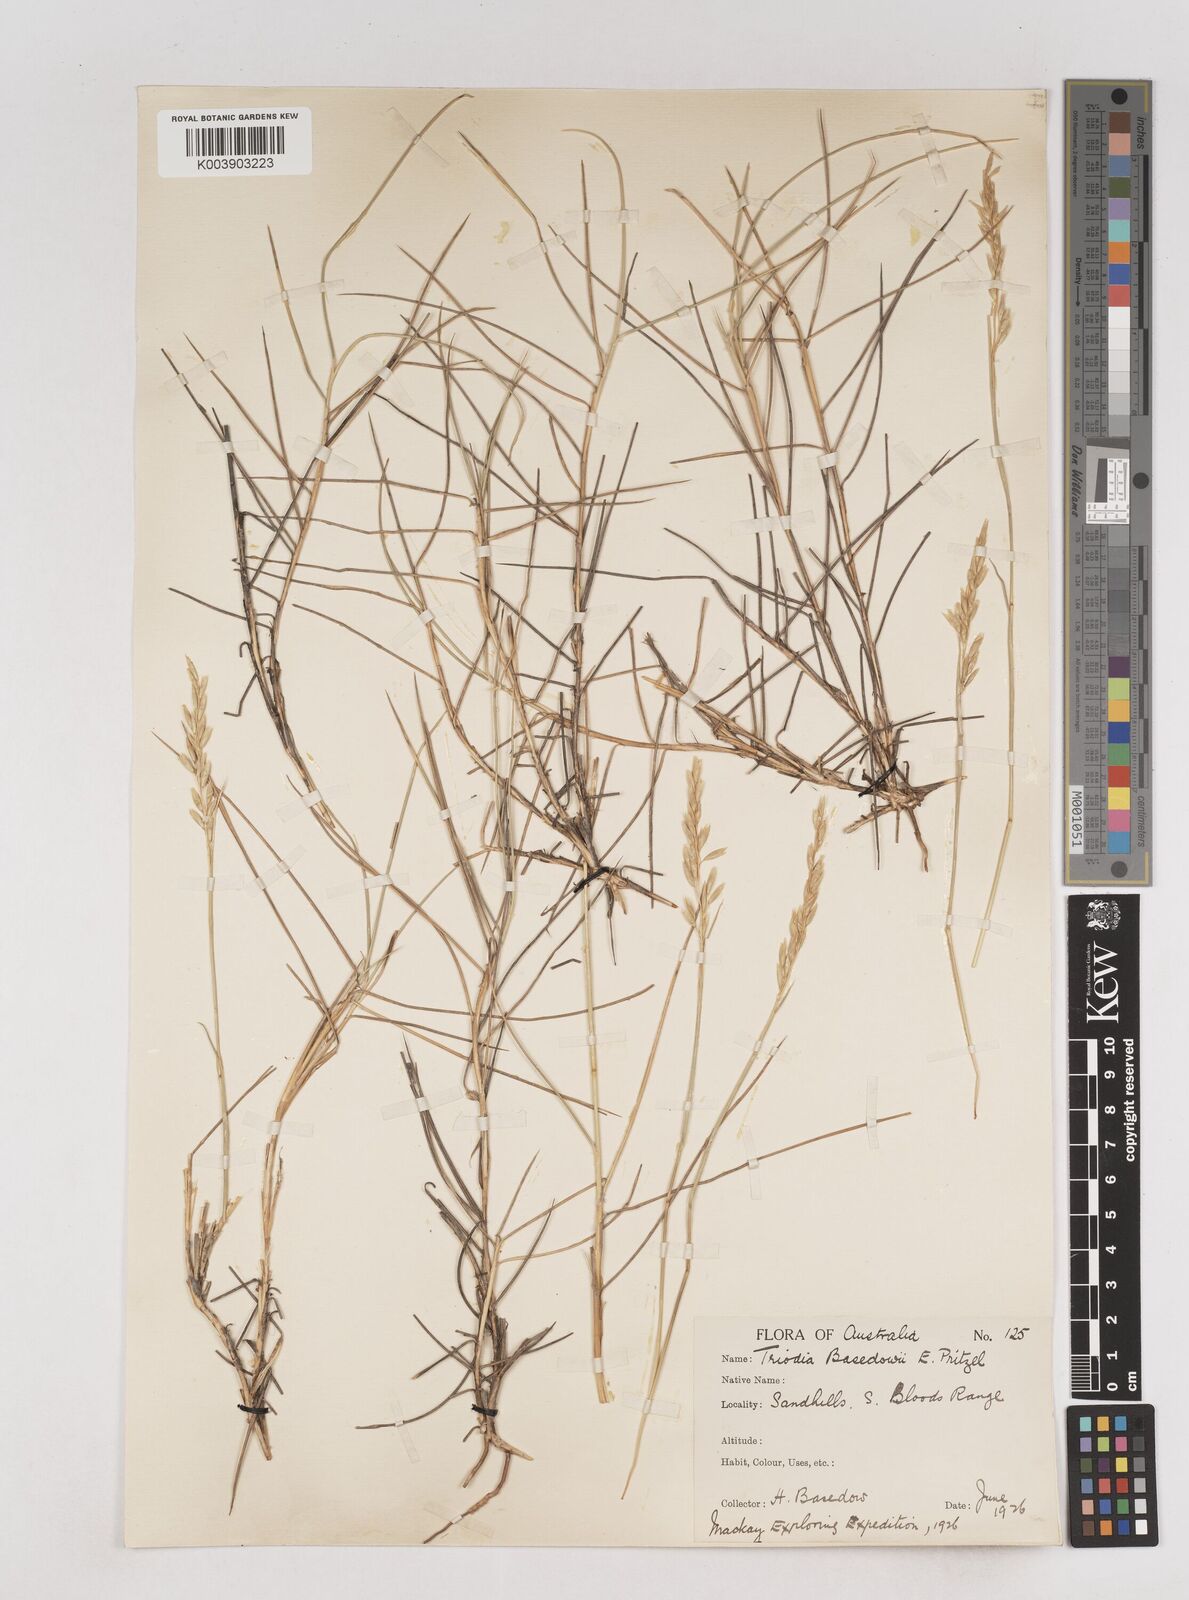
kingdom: Plantae
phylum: Tracheophyta
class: Liliopsida
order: Poales
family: Poaceae
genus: Triodia
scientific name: Triodia basedowii
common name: Hard spinifex
